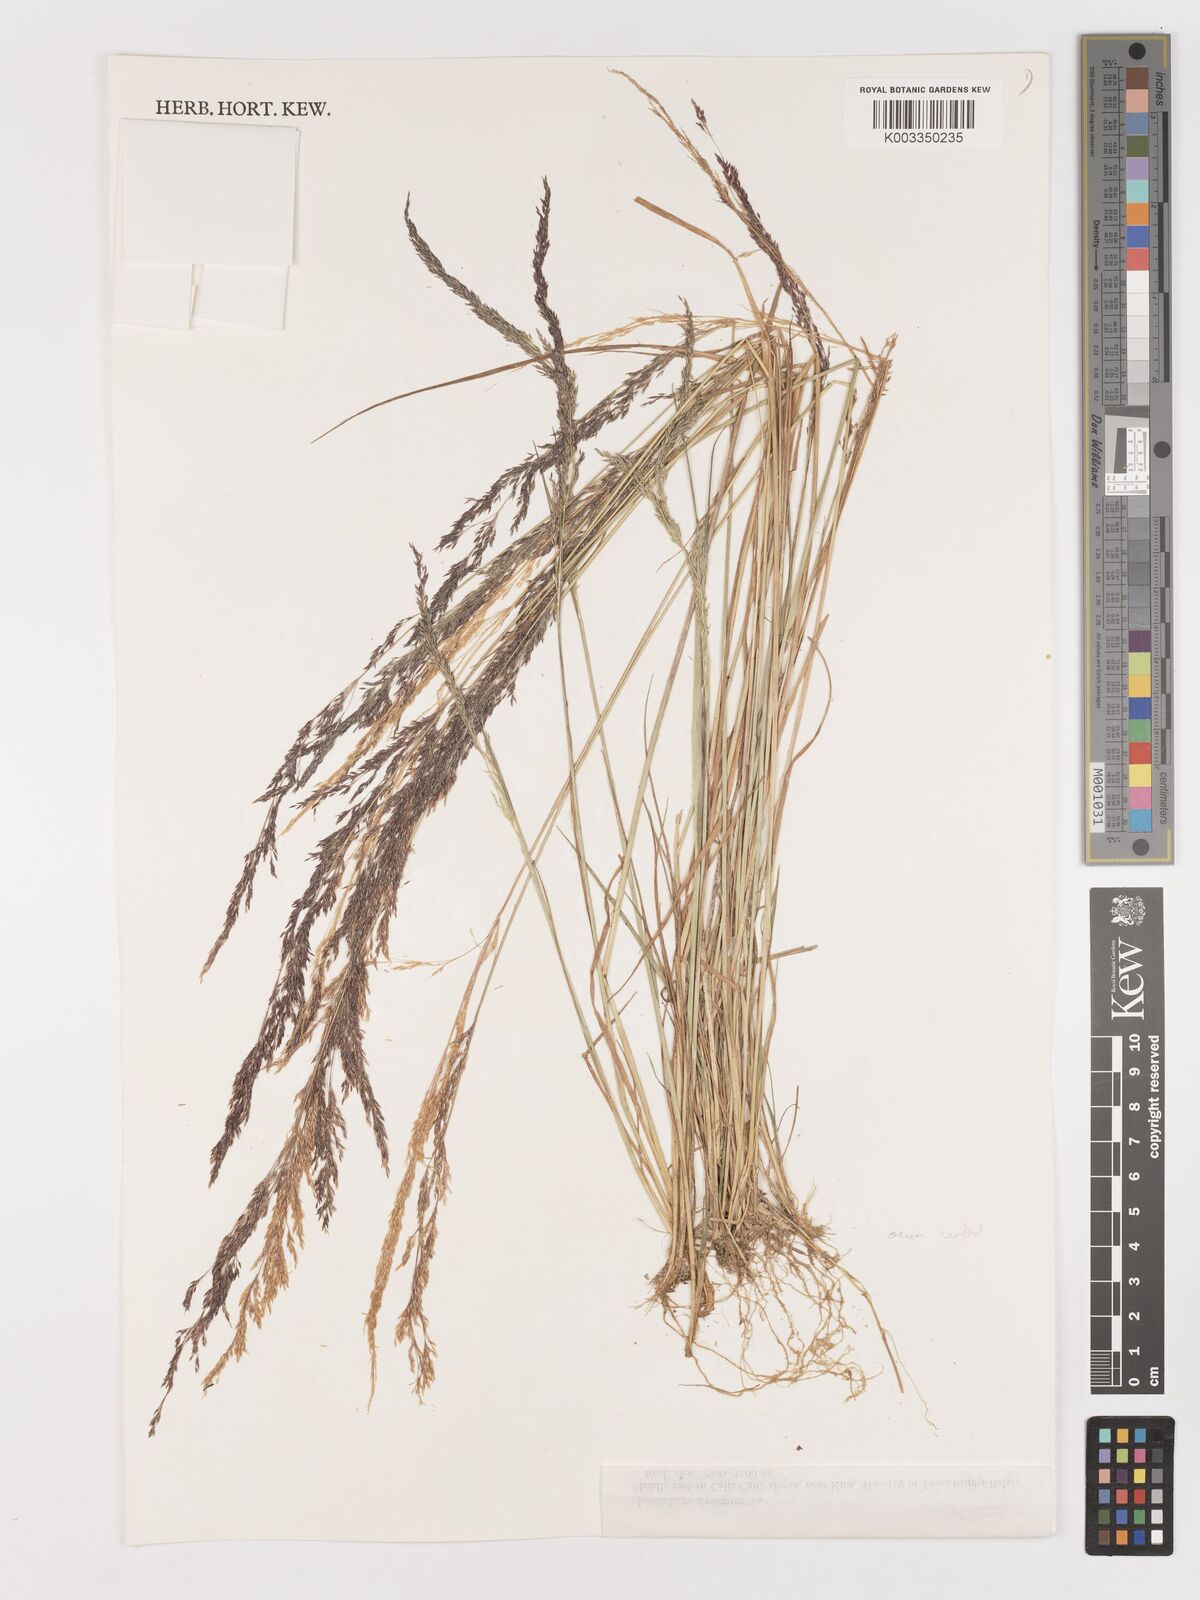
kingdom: Plantae
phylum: Tracheophyta
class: Liliopsida
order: Poales
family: Poaceae
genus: Agrostis
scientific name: Agrostis
